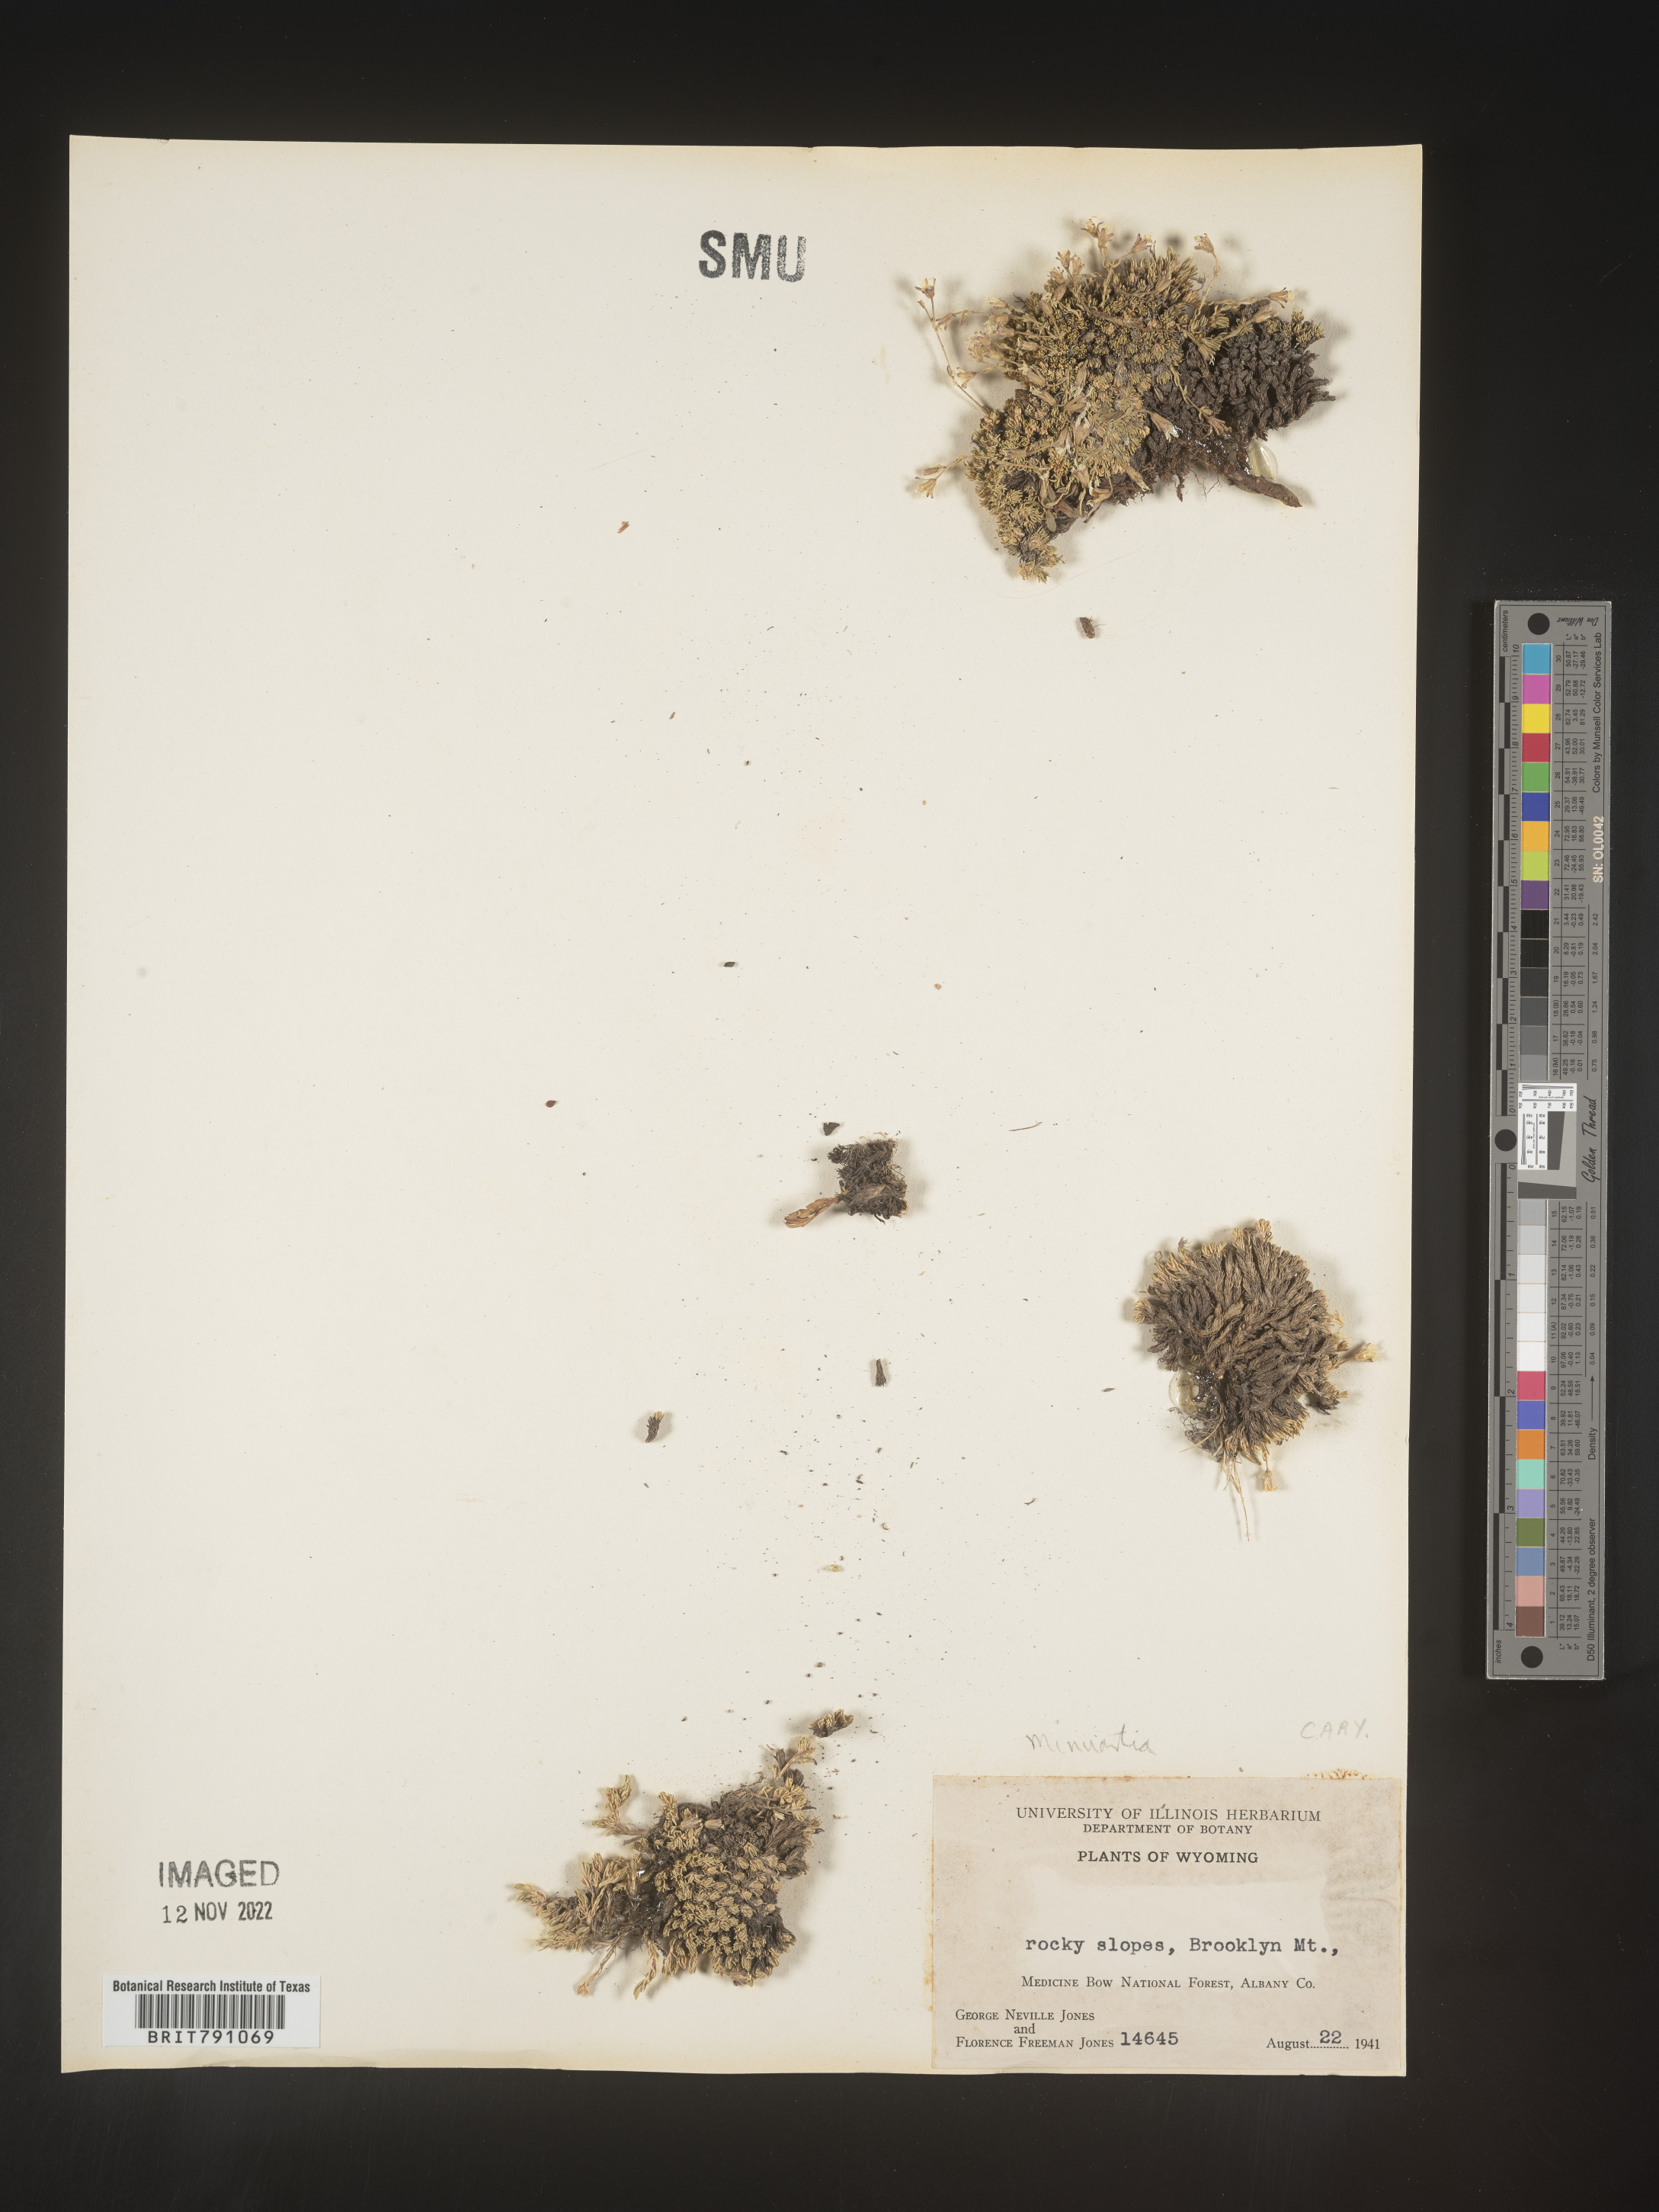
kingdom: Plantae
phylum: Tracheophyta
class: Magnoliopsida
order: Caryophyllales
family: Caryophyllaceae
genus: Minuartia
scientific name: Minuartia
